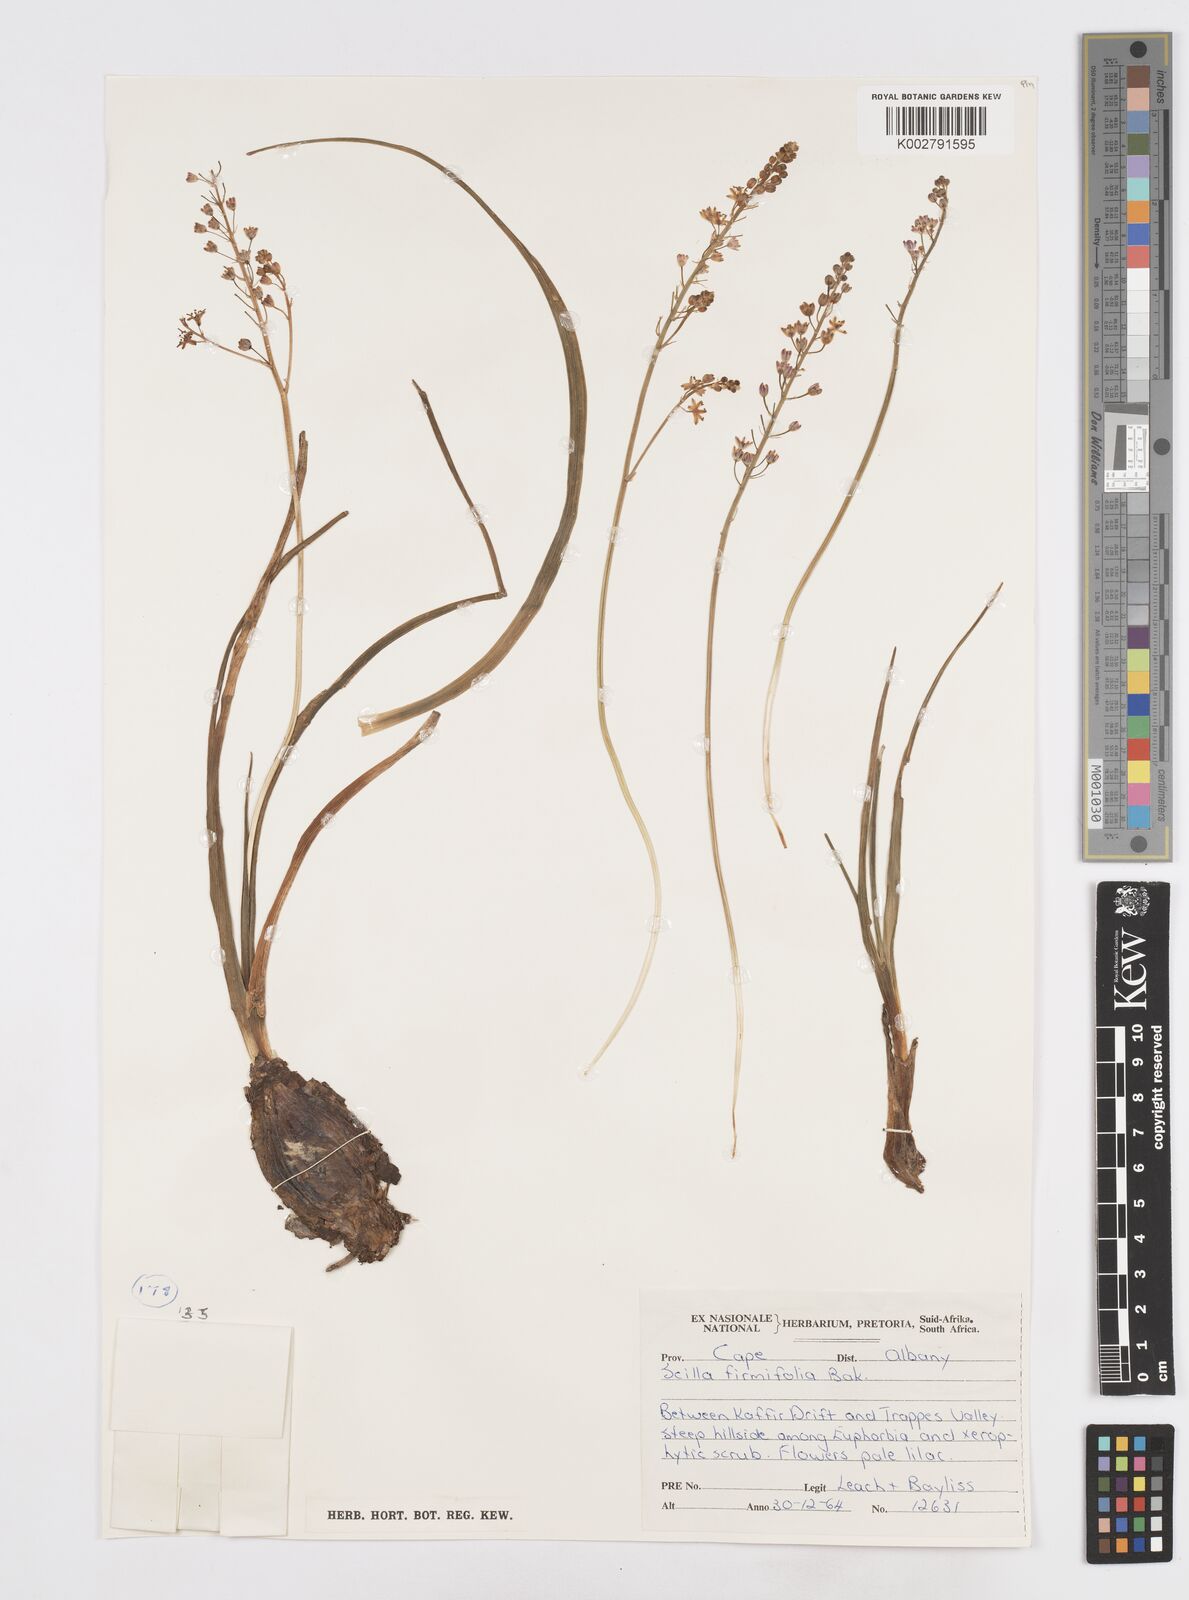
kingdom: Plantae
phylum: Tracheophyta
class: Liliopsida
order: Asparagales
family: Asparagaceae
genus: Pseudoprospero
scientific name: Pseudoprospero firmifolium
